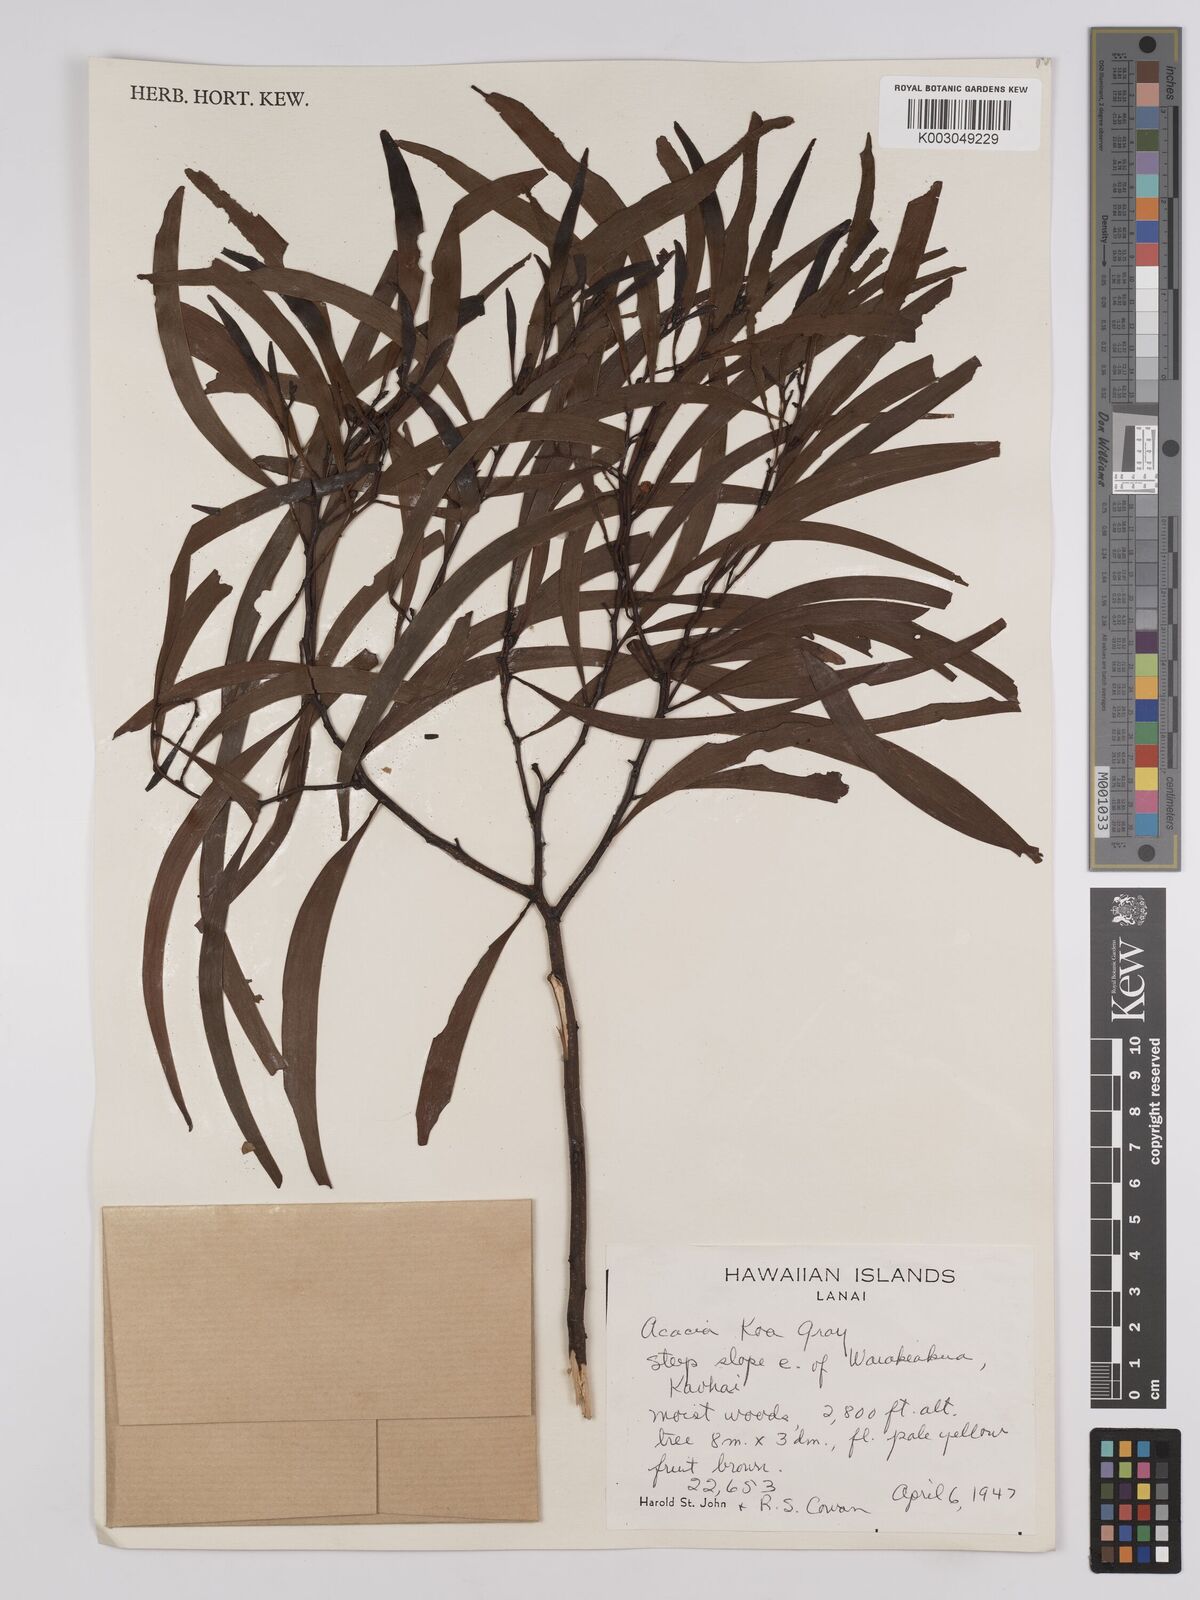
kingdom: Plantae
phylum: Tracheophyta
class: Magnoliopsida
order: Fabales
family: Fabaceae
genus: Acacia
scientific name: Acacia koa
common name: Gray koa
